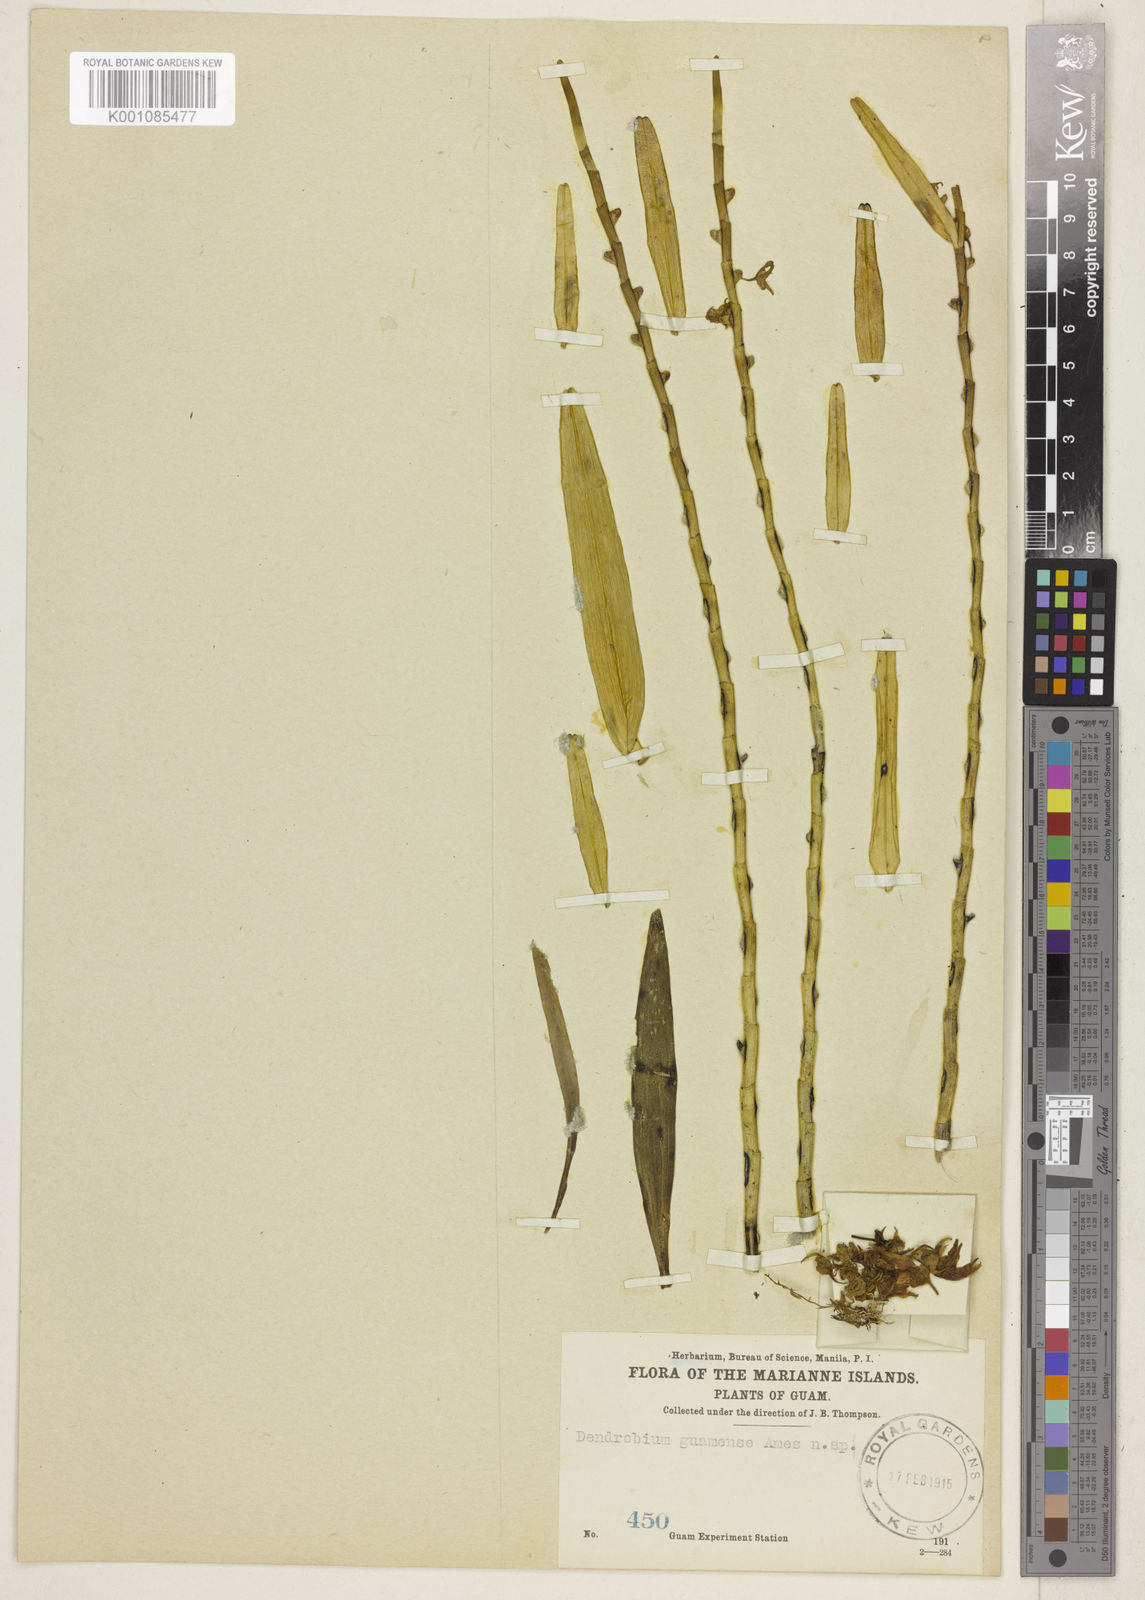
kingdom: Plantae
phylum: Tracheophyta
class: Liliopsida
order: Asparagales
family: Orchidaceae
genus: Dendrobium
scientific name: Dendrobium guamense
